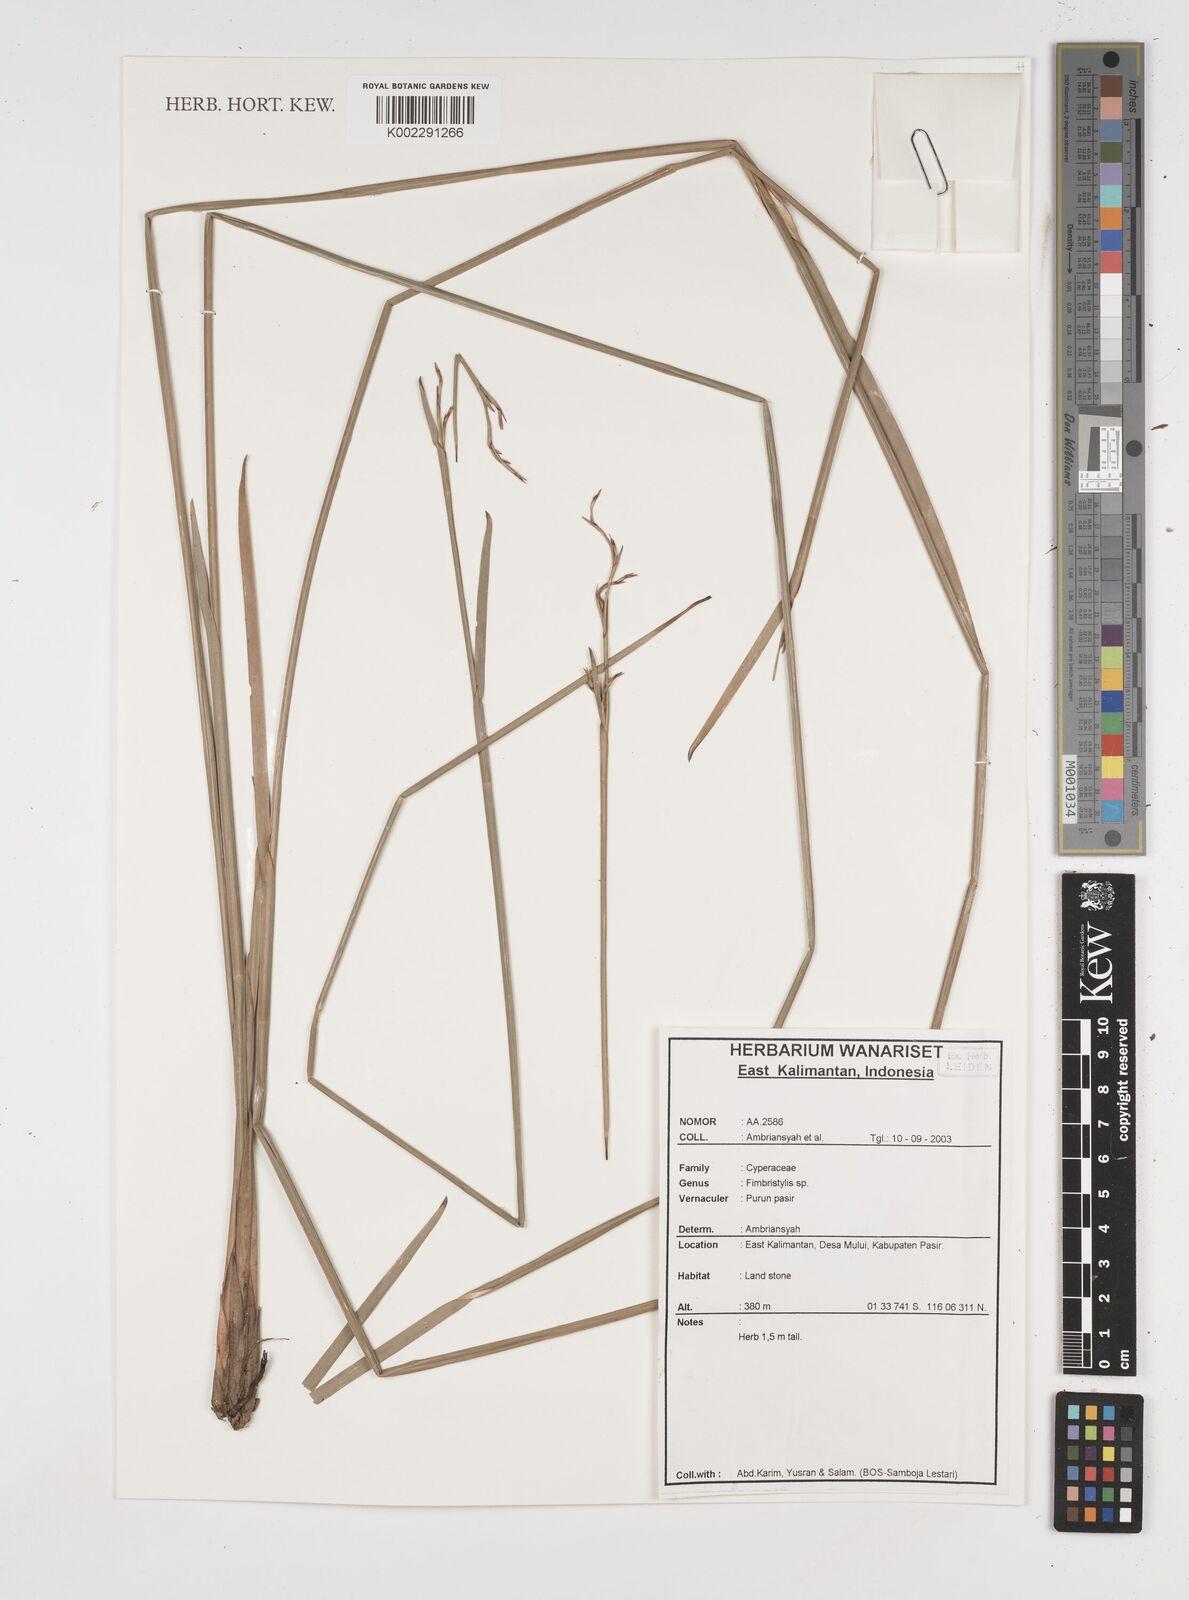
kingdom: Plantae
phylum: Tracheophyta
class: Liliopsida
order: Poales
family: Cyperaceae
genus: Fimbristylis
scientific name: Fimbristylis
